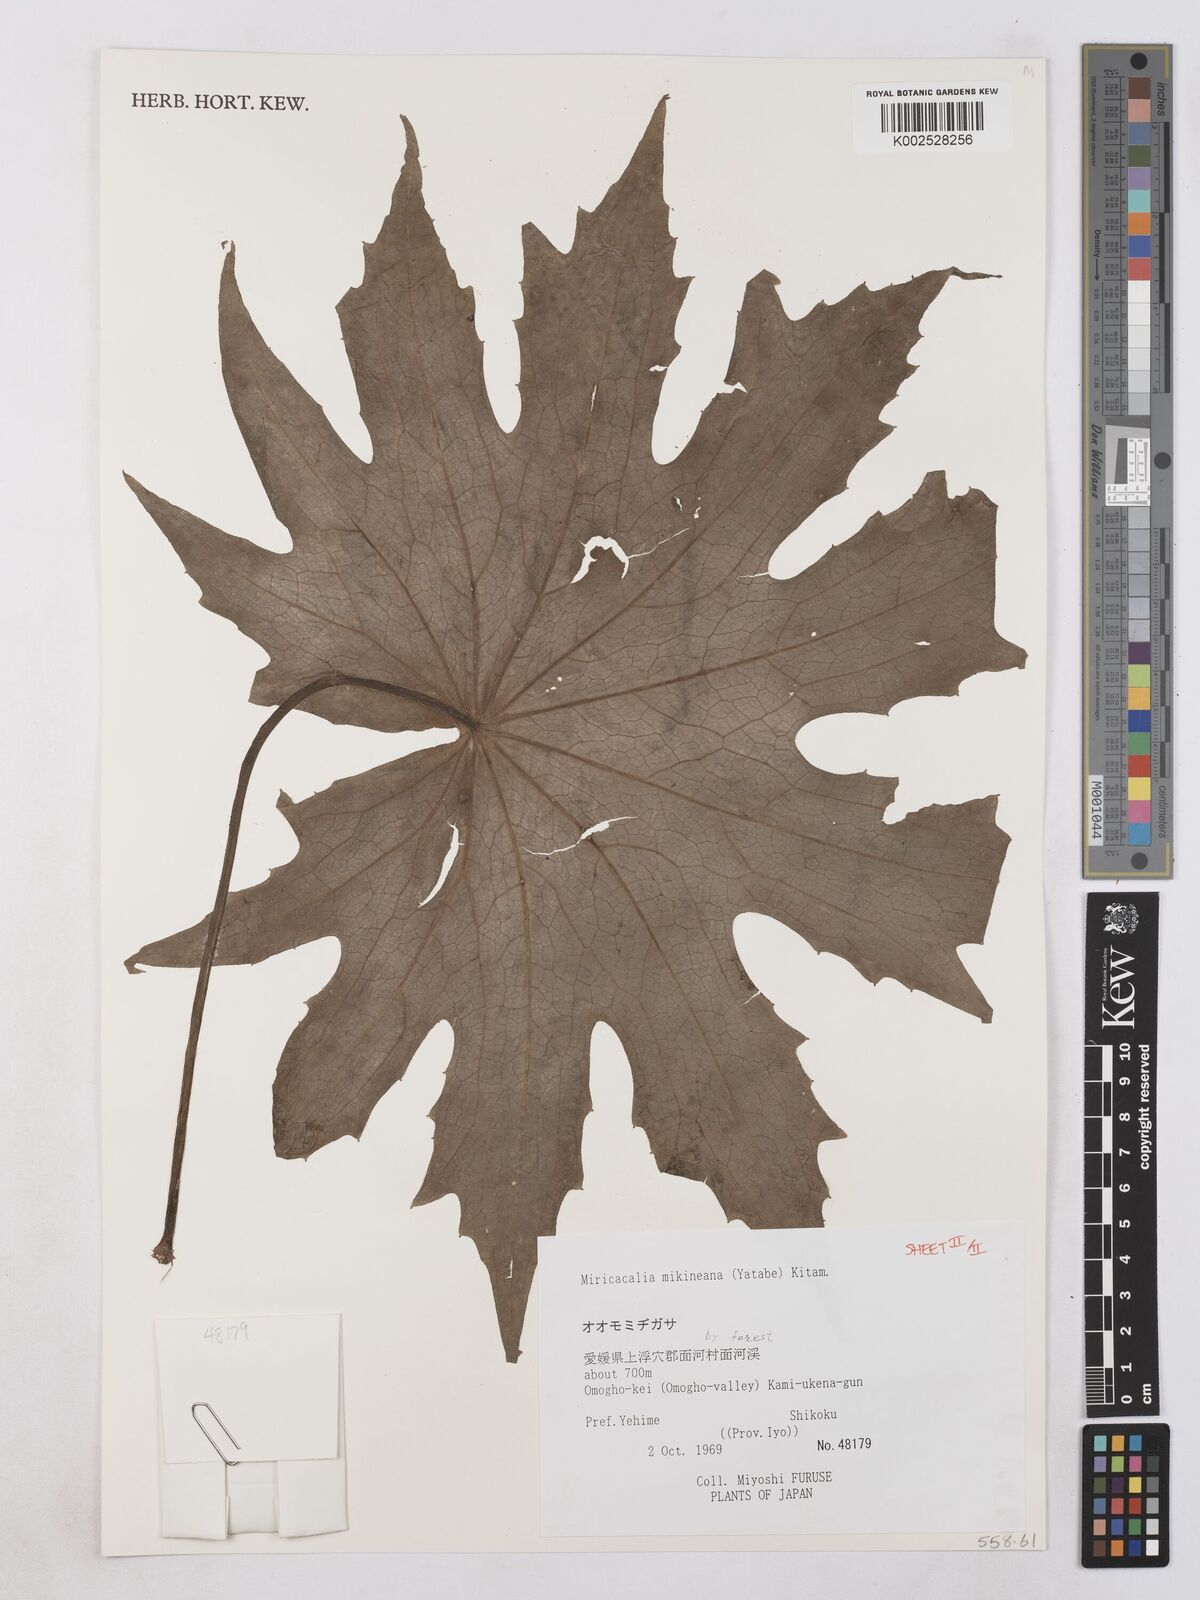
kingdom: Plantae
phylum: Tracheophyta
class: Magnoliopsida
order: Asterales
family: Asteraceae
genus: Miricacalia
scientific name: Miricacalia makineana
